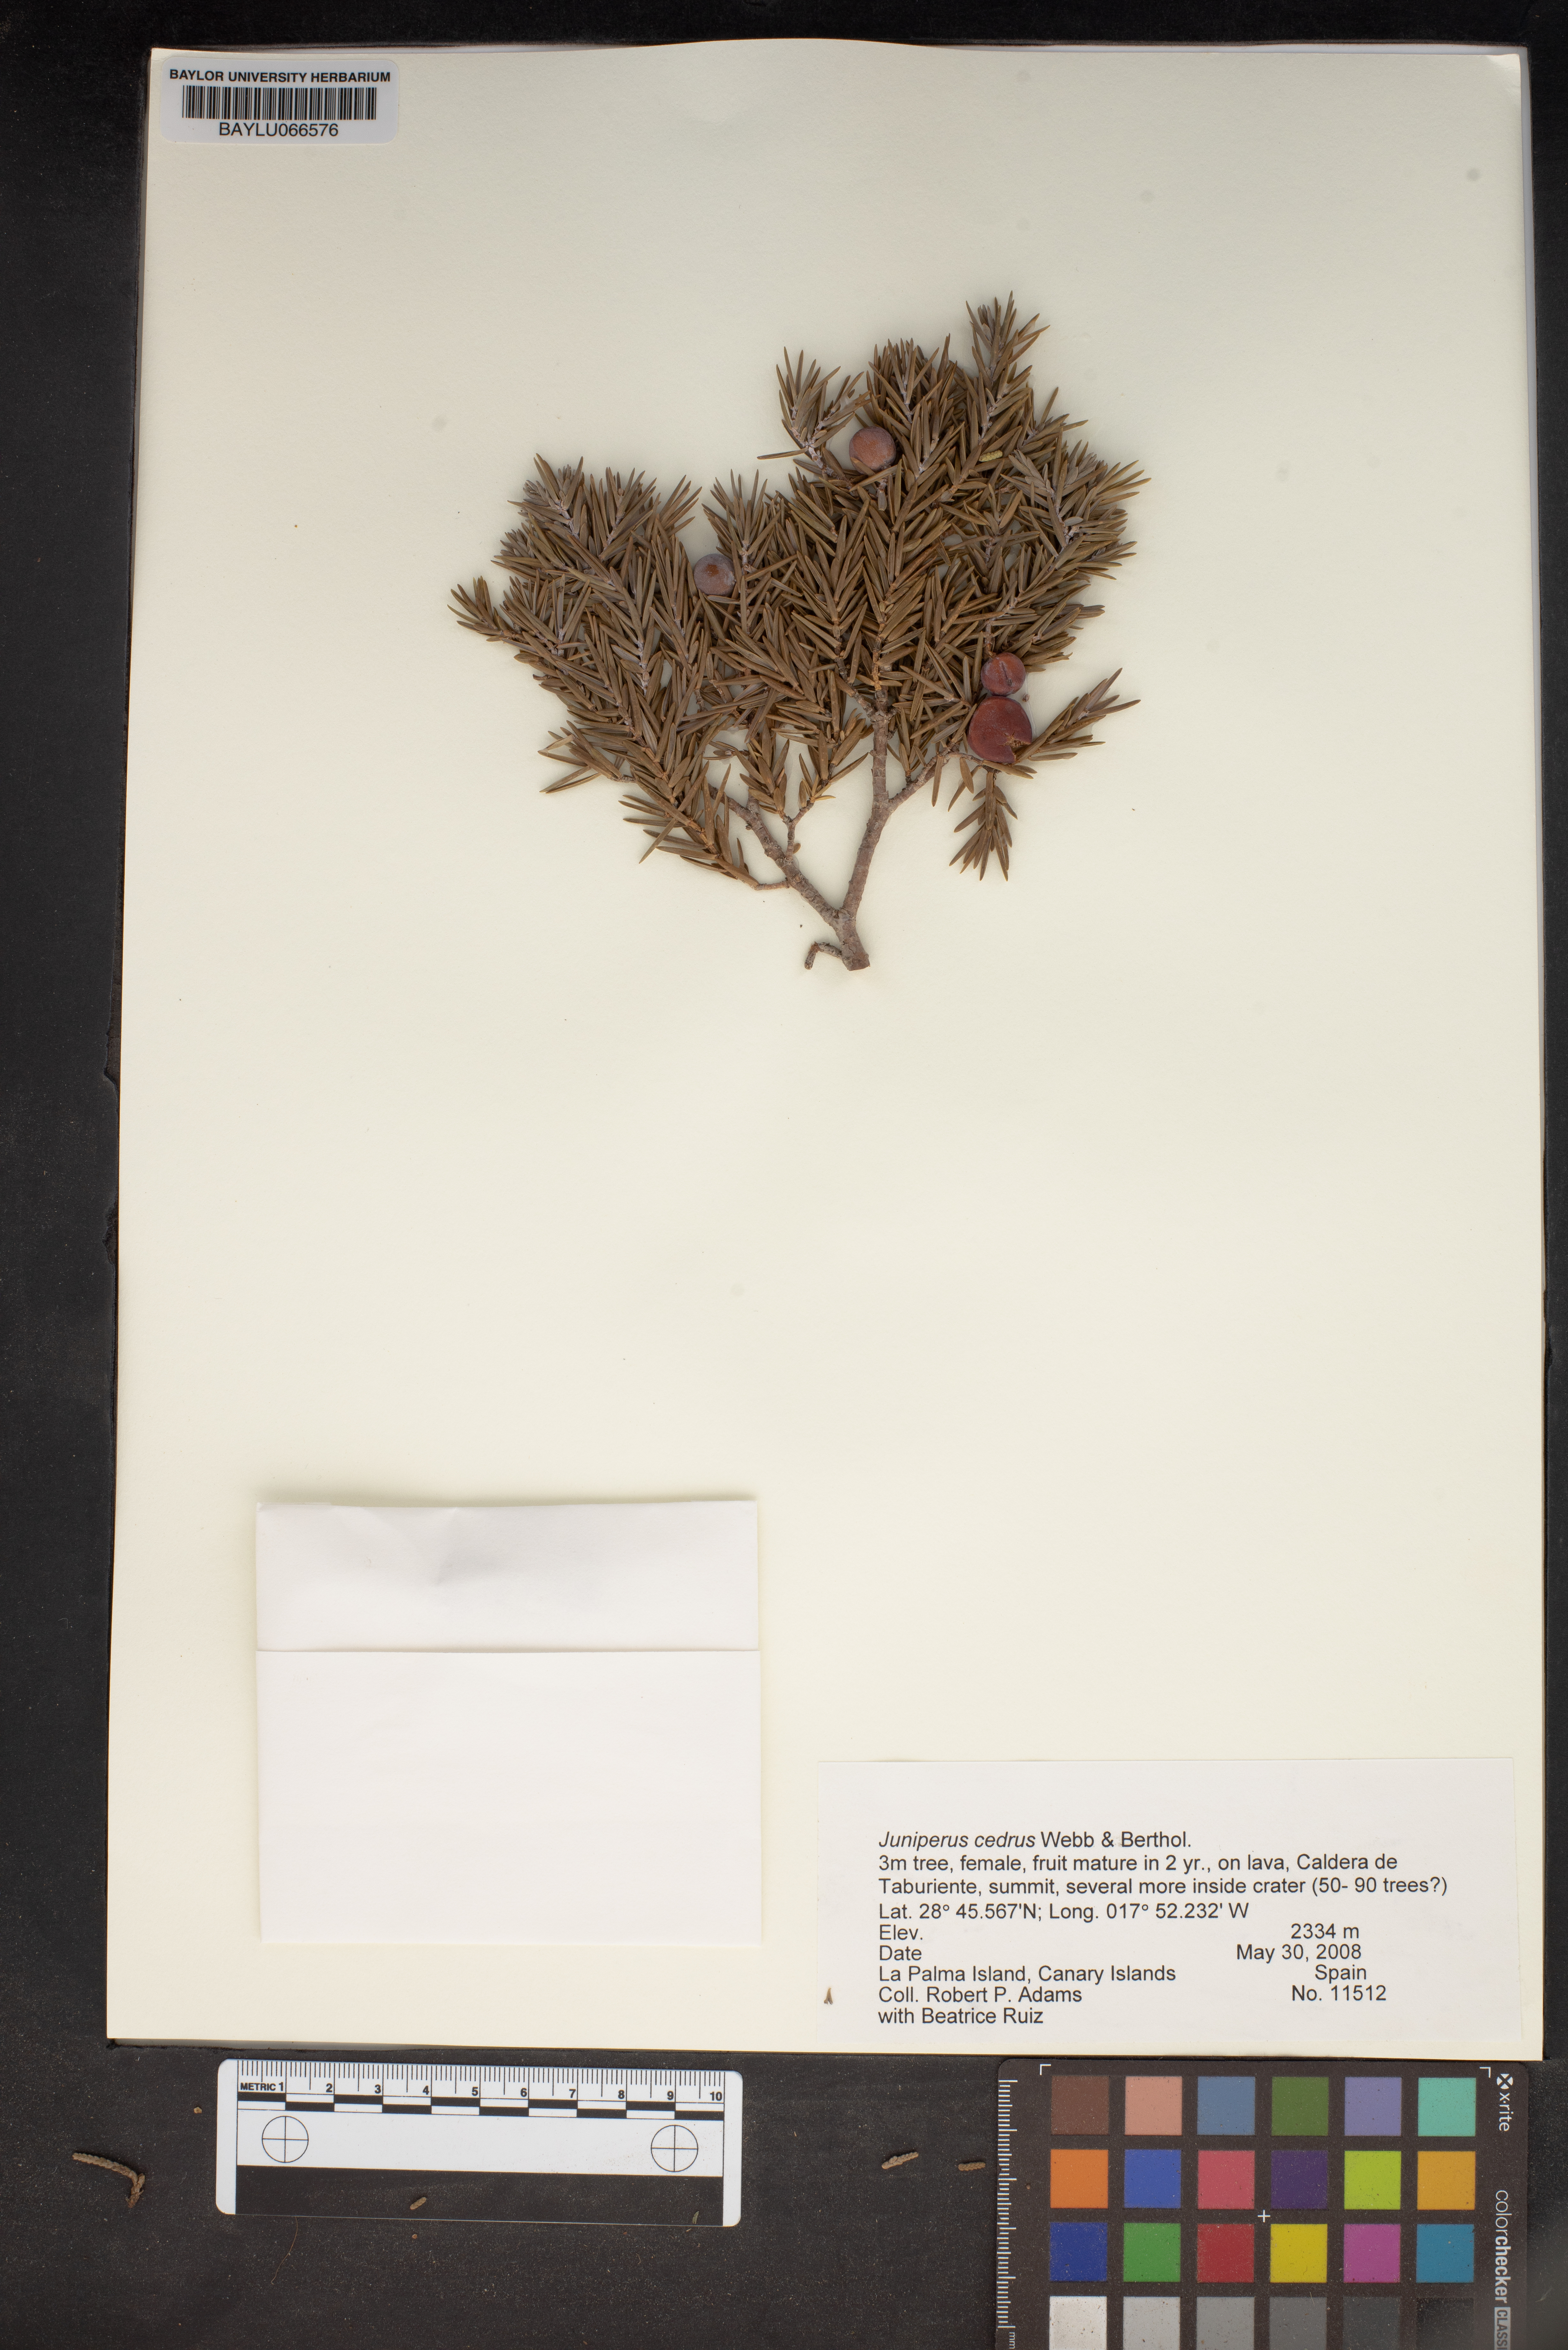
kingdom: Plantae
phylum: Tracheophyta
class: Pinopsida
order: Pinales
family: Cupressaceae
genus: Juniperus
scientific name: Juniperus cedrus
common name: Canary islands juniper
